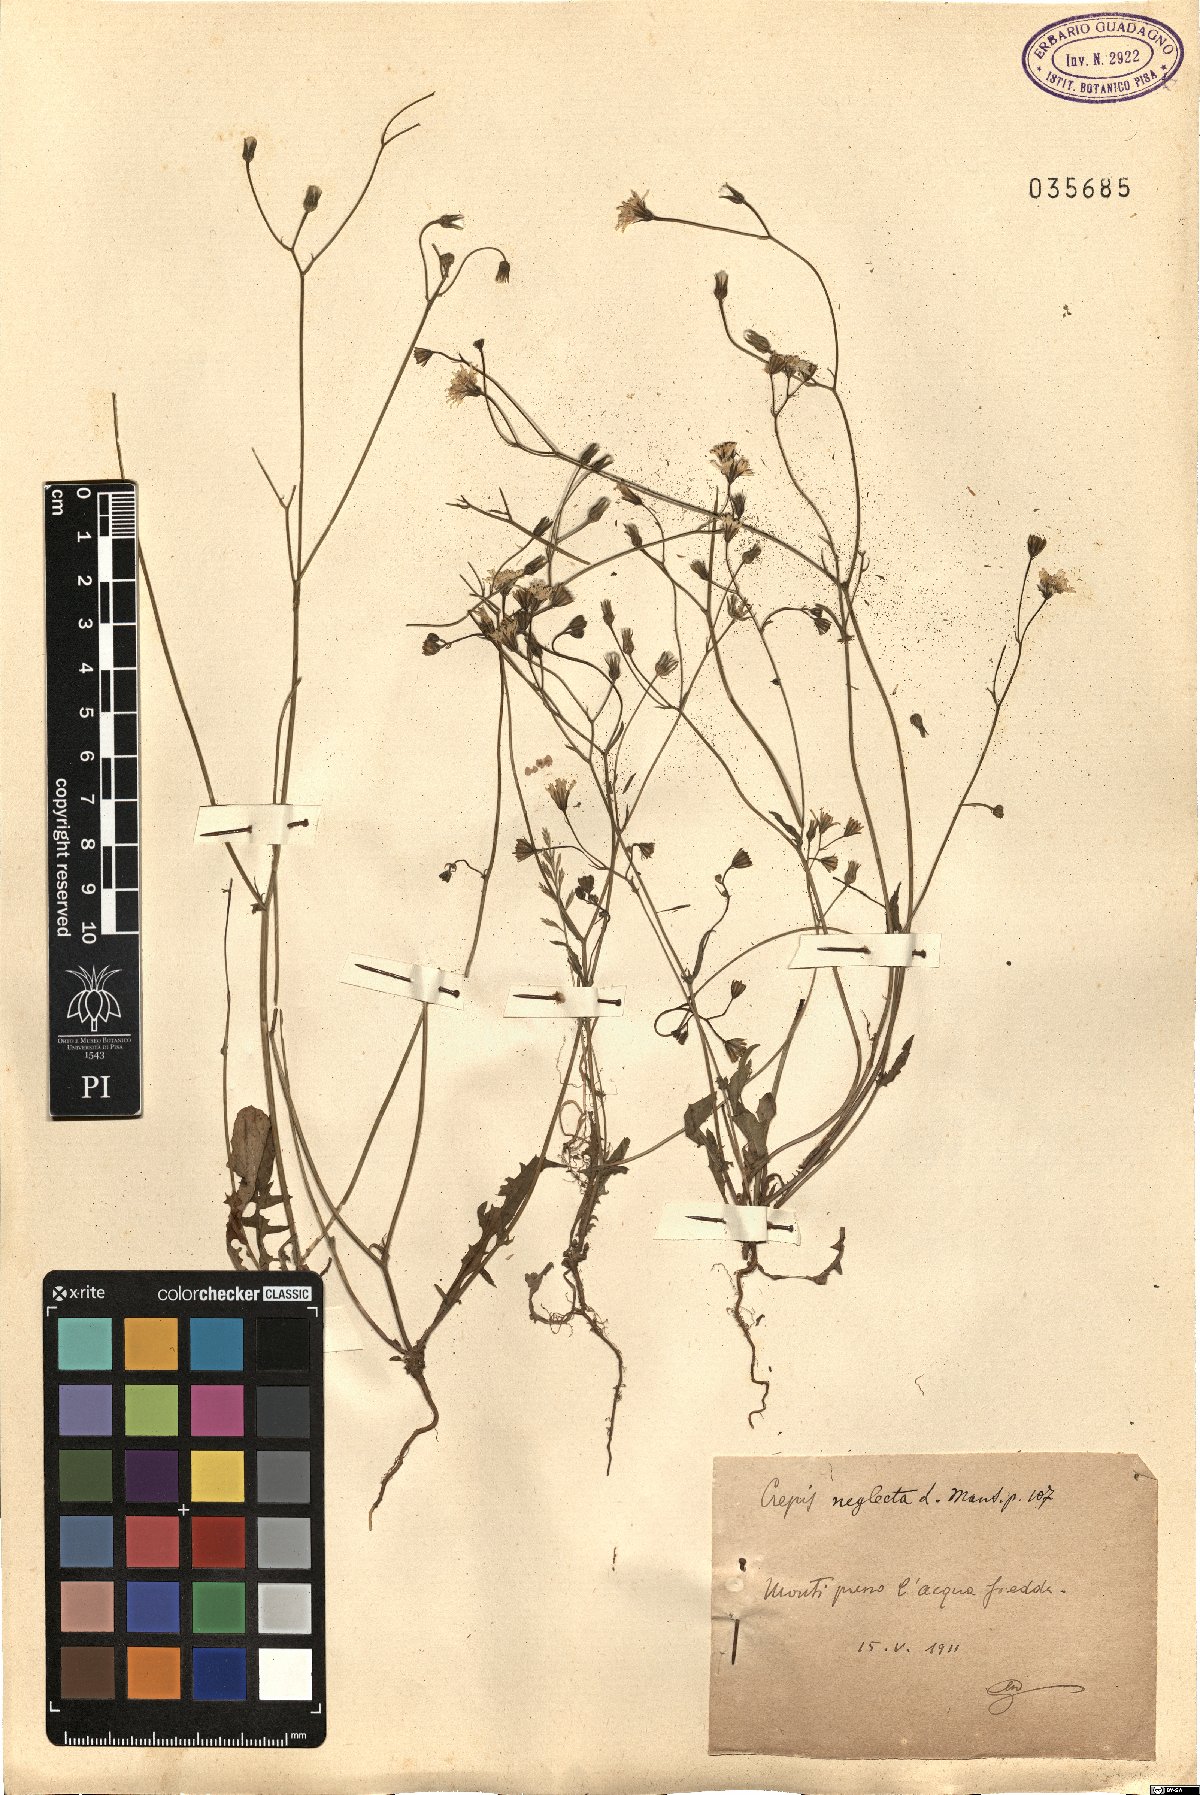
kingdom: Plantae
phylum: Tracheophyta
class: Magnoliopsida
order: Asterales
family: Asteraceae
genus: Crepis
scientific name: Crepis neglecta
